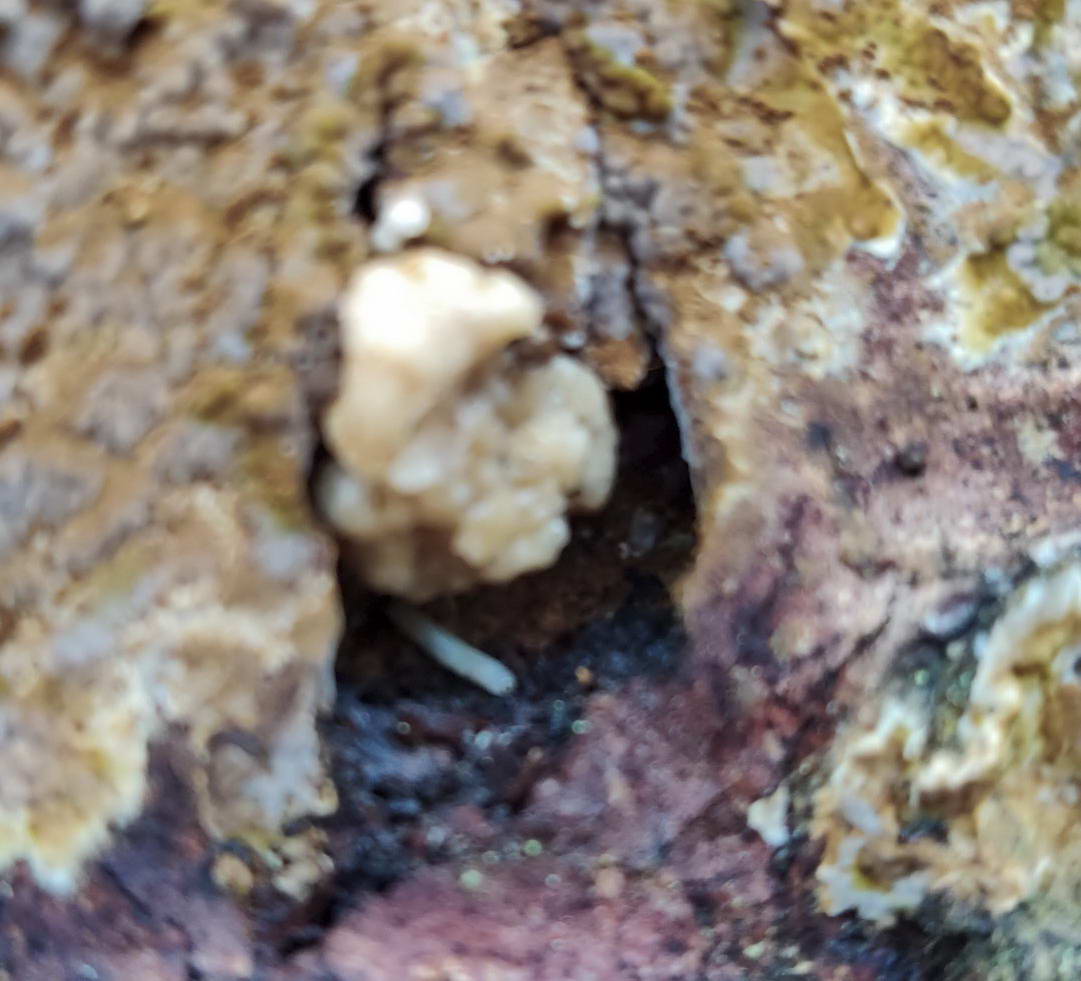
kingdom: Fungi
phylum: Ascomycota
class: Sordariomycetes
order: Xylariales
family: Hypoxylaceae
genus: Nodulisporium
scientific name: Nodulisporium cecidiogenes
